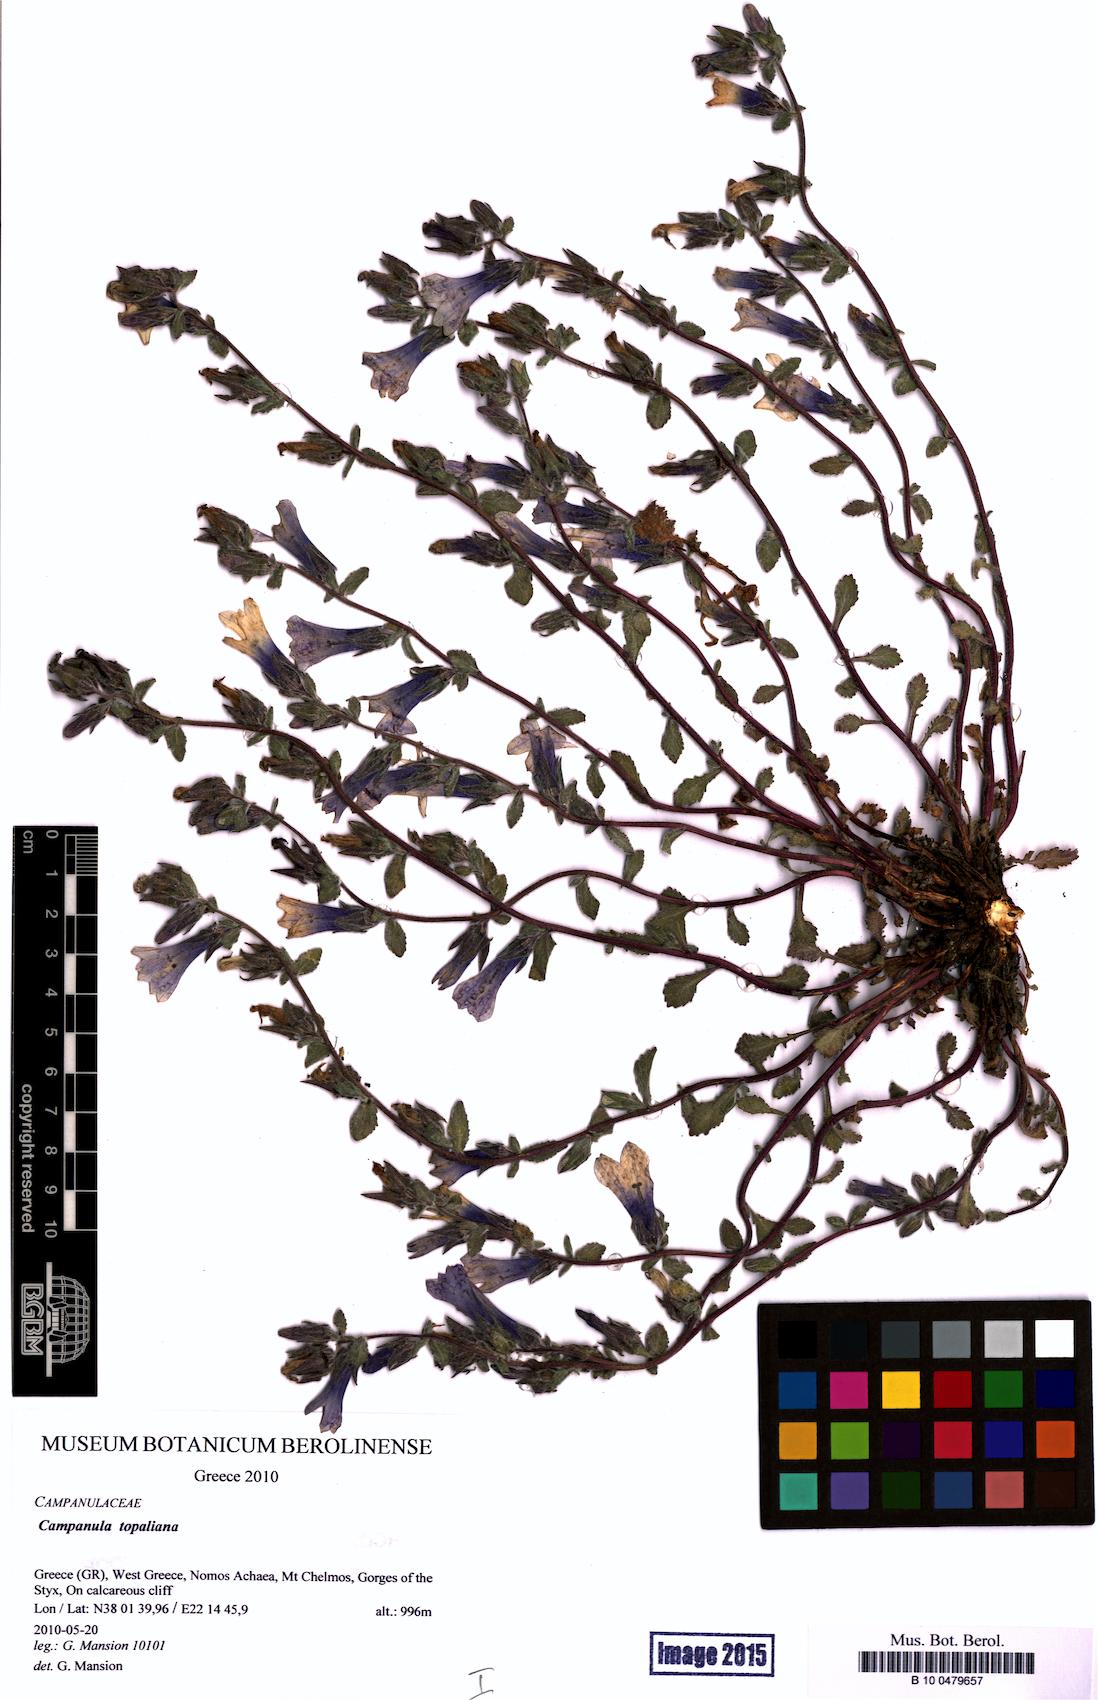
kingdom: Plantae
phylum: Tracheophyta
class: Magnoliopsida
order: Asterales
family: Campanulaceae
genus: Campanula
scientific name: Campanula topaliana
